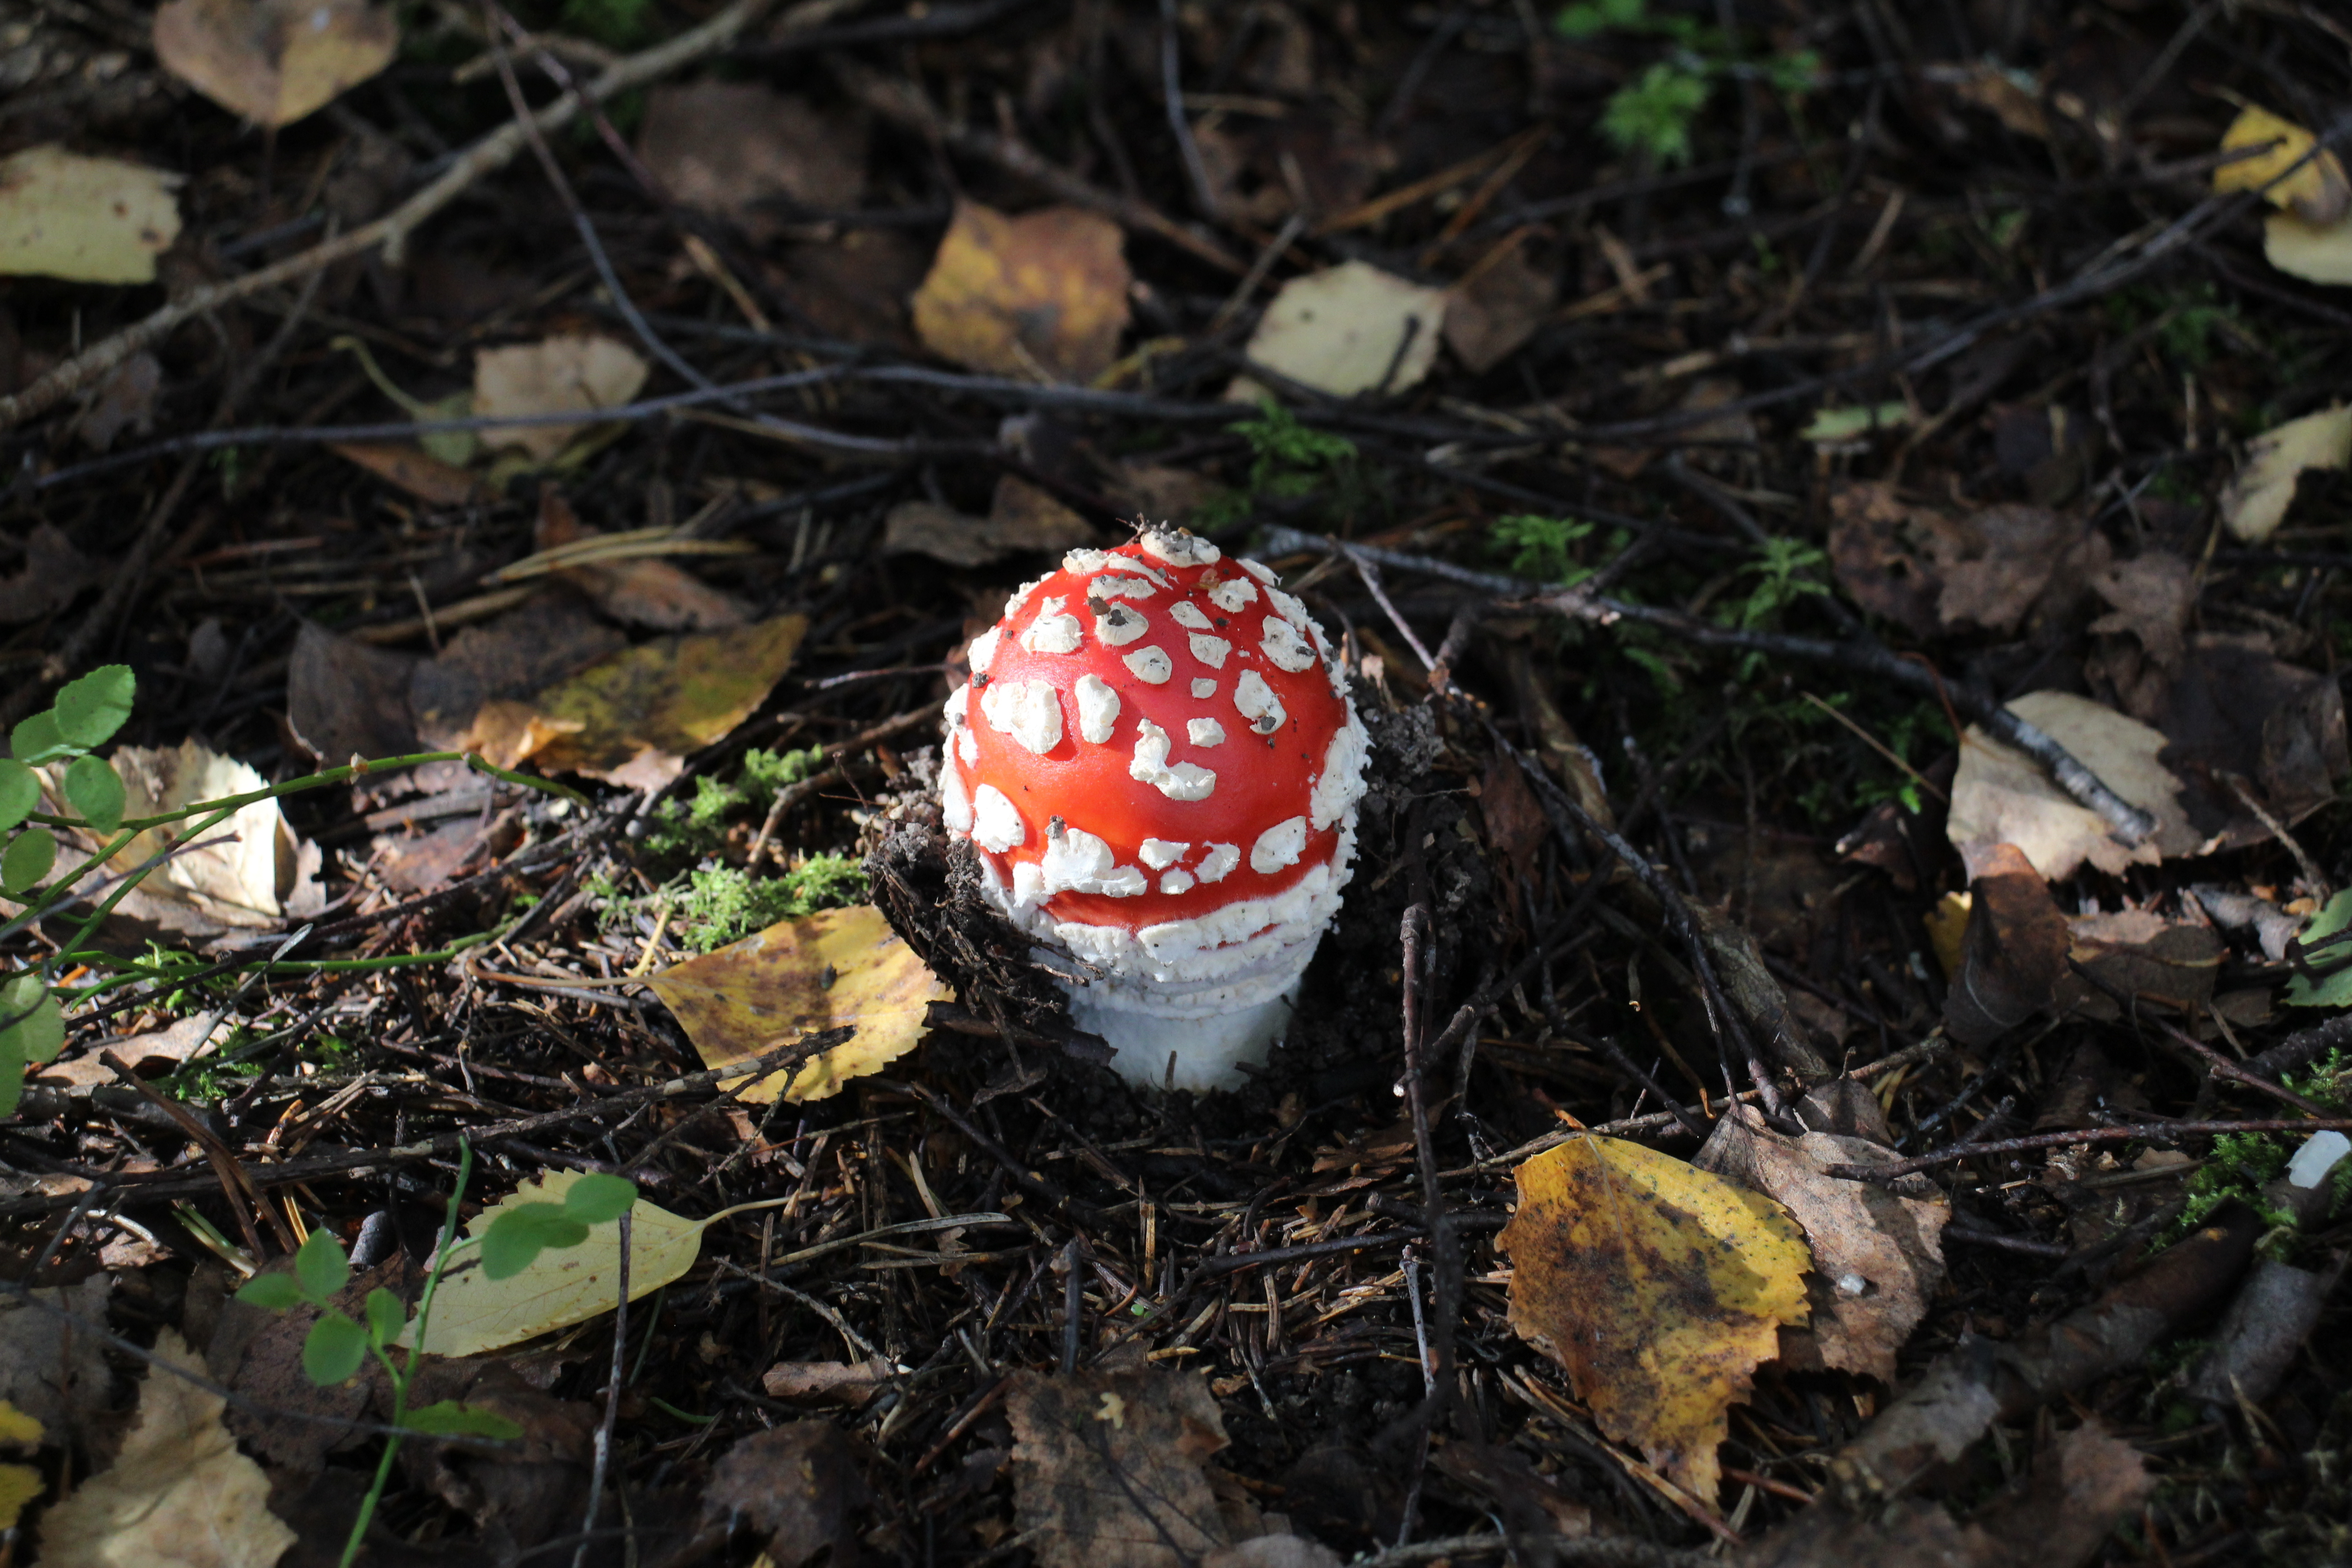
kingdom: Fungi
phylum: Basidiomycota
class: Agaricomycetes
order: Agaricales
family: Amanitaceae
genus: Amanita
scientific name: Amanita muscaria
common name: Fly agaric
